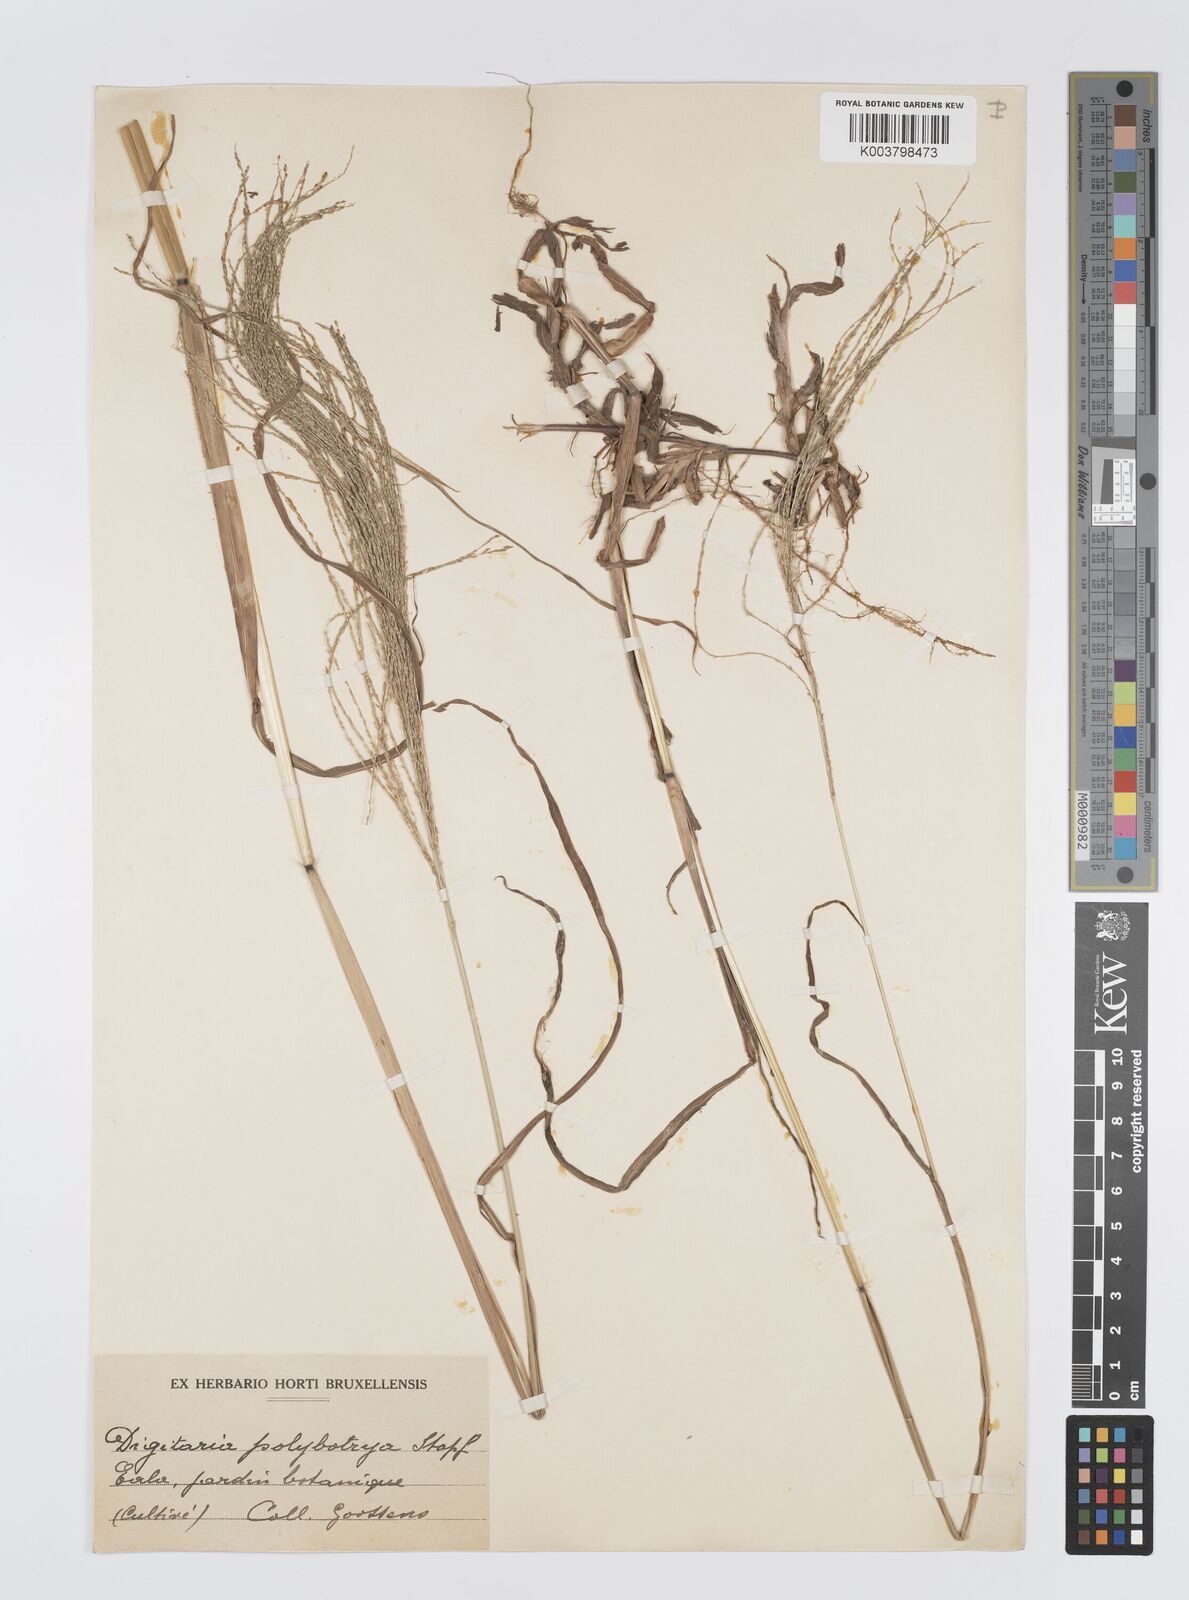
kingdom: Plantae
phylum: Tracheophyta
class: Liliopsida
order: Poales
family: Poaceae
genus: Digitaria
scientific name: Digitaria leptorhachis
